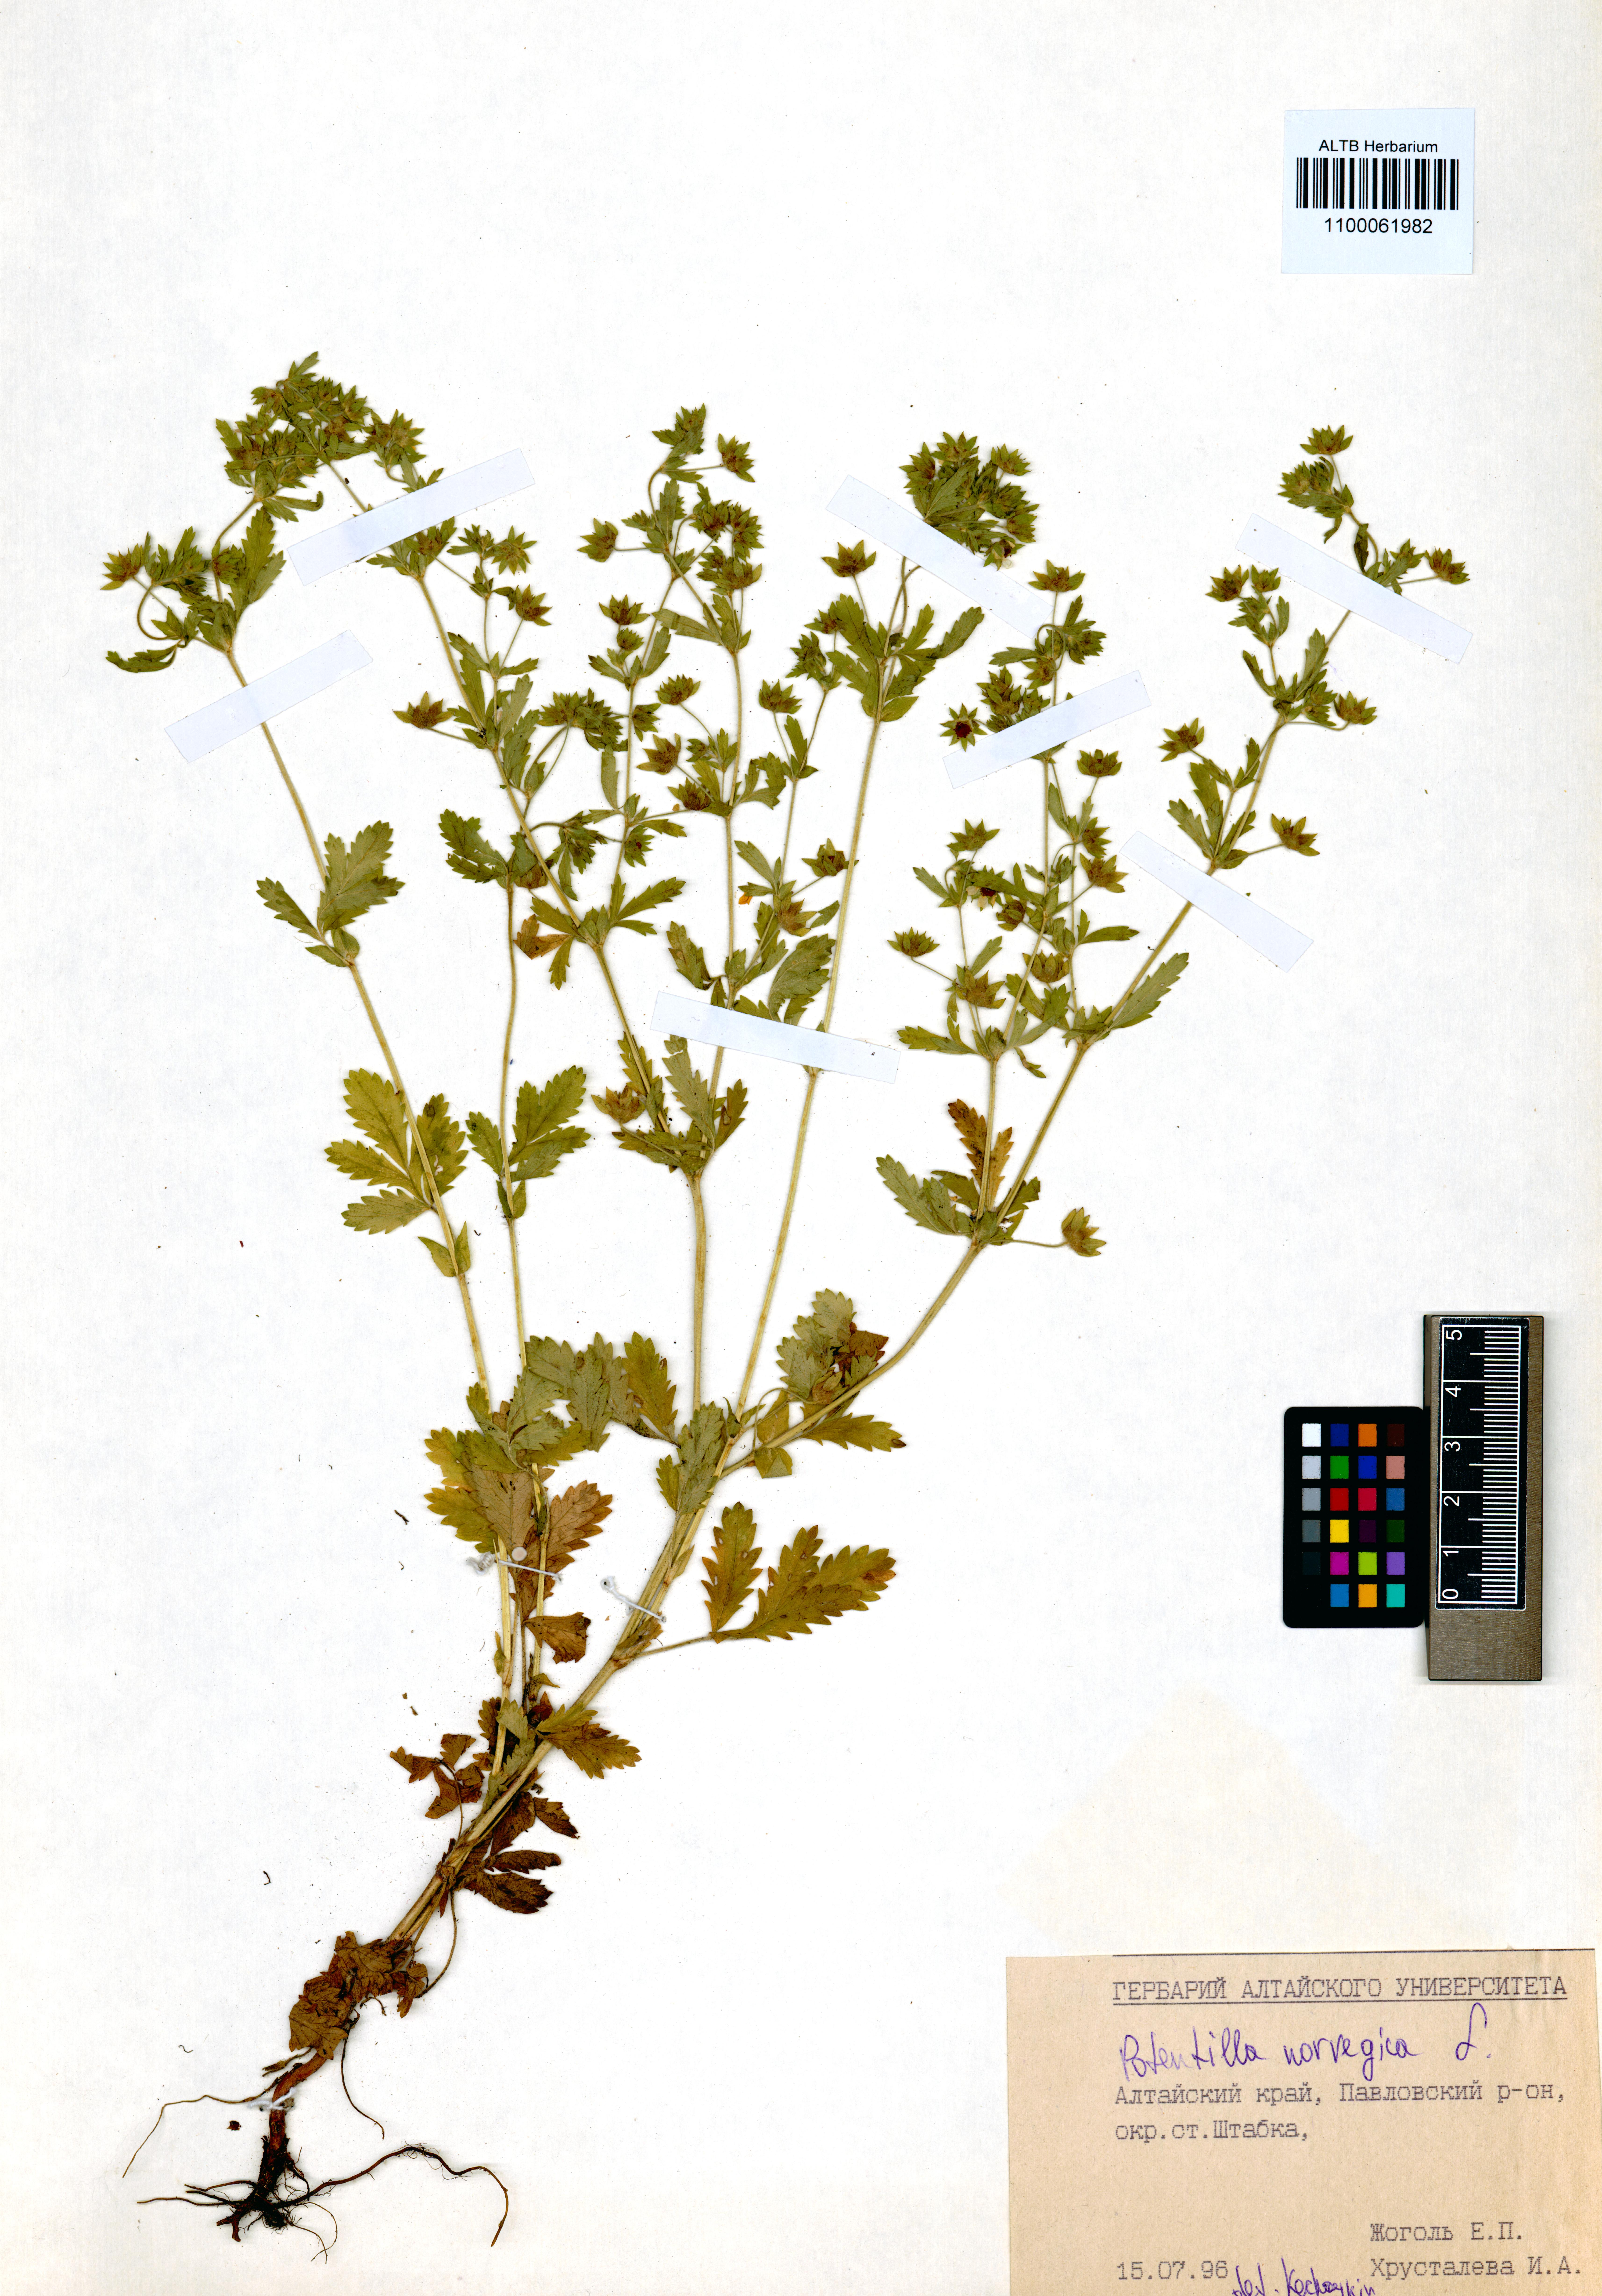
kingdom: Plantae
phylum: Tracheophyta
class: Magnoliopsida
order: Rosales
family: Rosaceae
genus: Potentilla
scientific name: Potentilla norvegica
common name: Ternate-leaved cinquefoil
